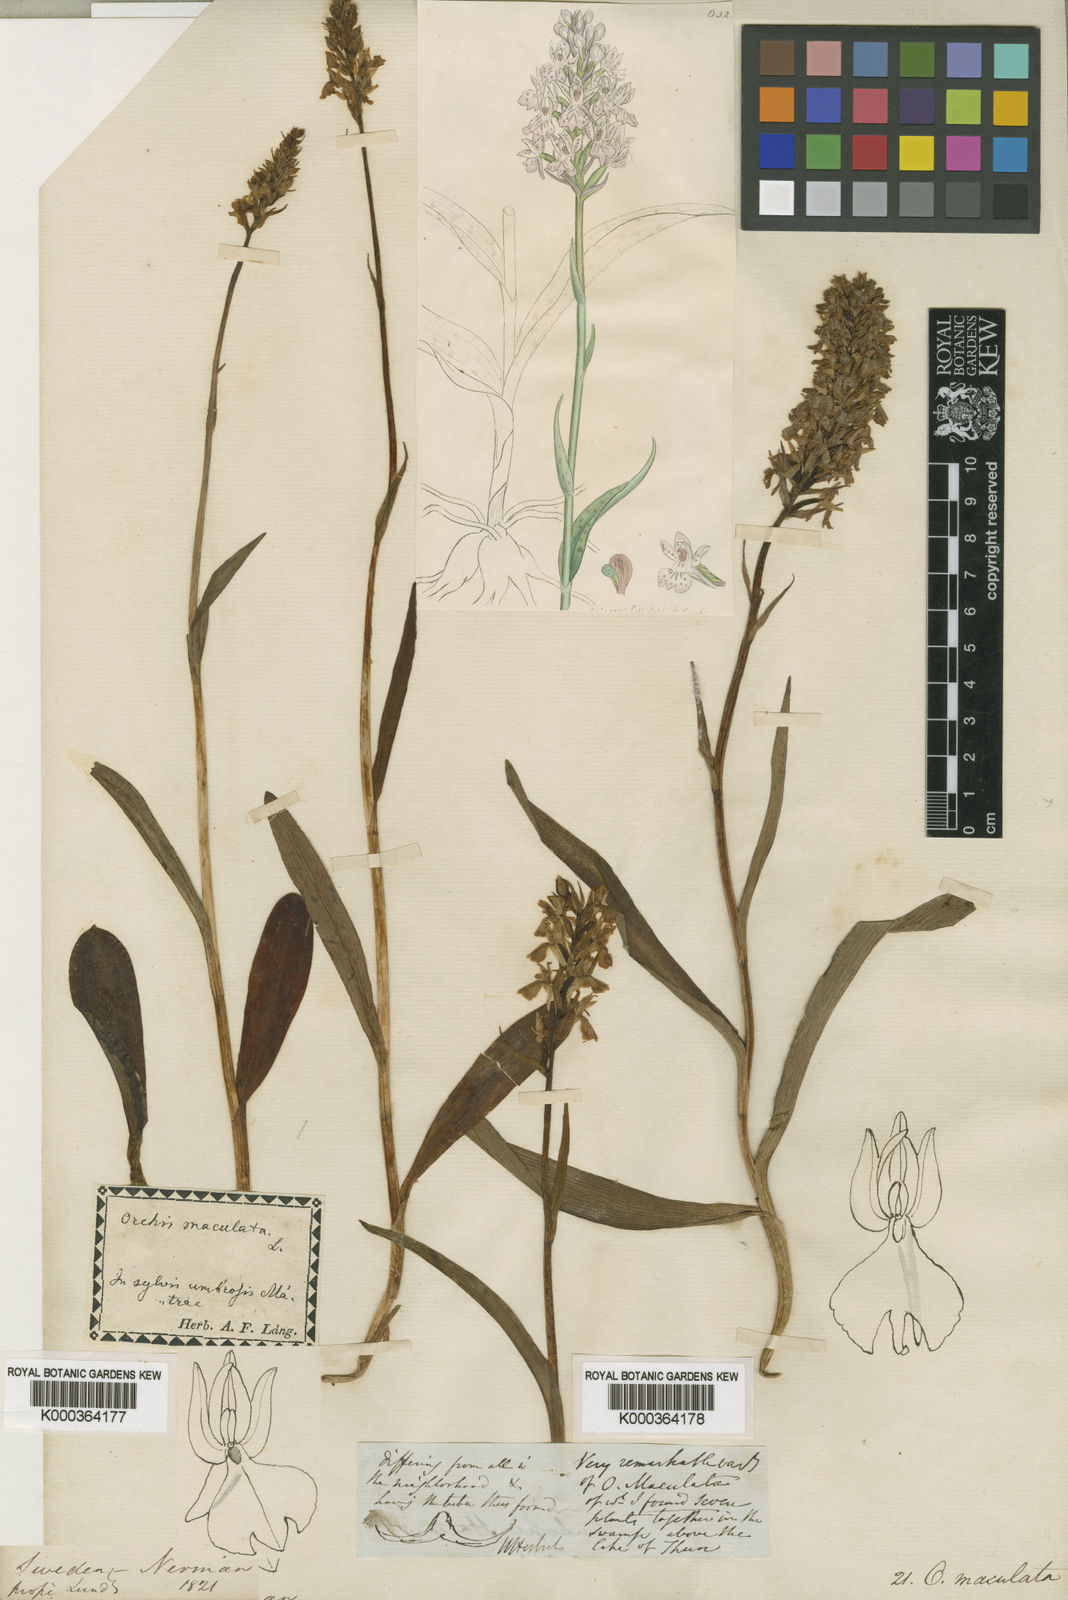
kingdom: Plantae
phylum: Tracheophyta
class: Liliopsida
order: Asparagales
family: Orchidaceae
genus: Dactylorhiza
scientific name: Dactylorhiza
